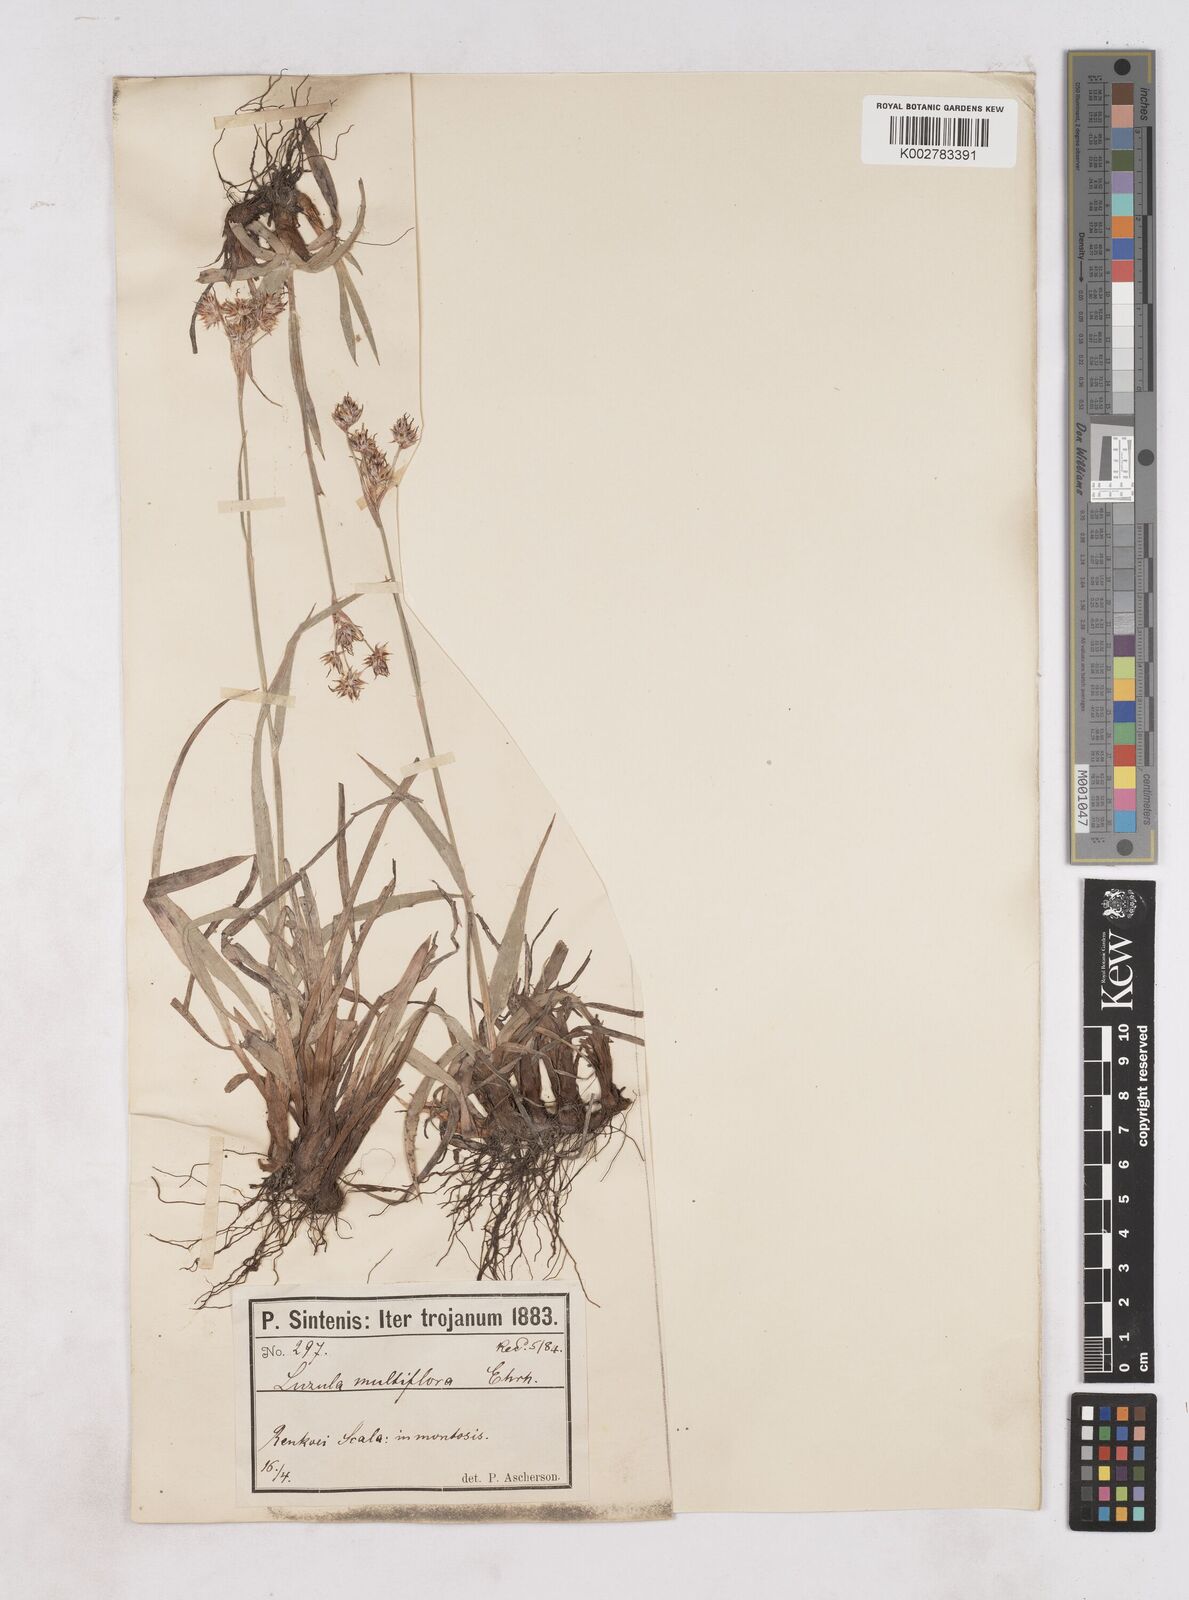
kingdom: Plantae
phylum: Tracheophyta
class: Liliopsida
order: Poales
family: Juncaceae
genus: Luzula
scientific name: Luzula multiflora
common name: Heath wood-rush
